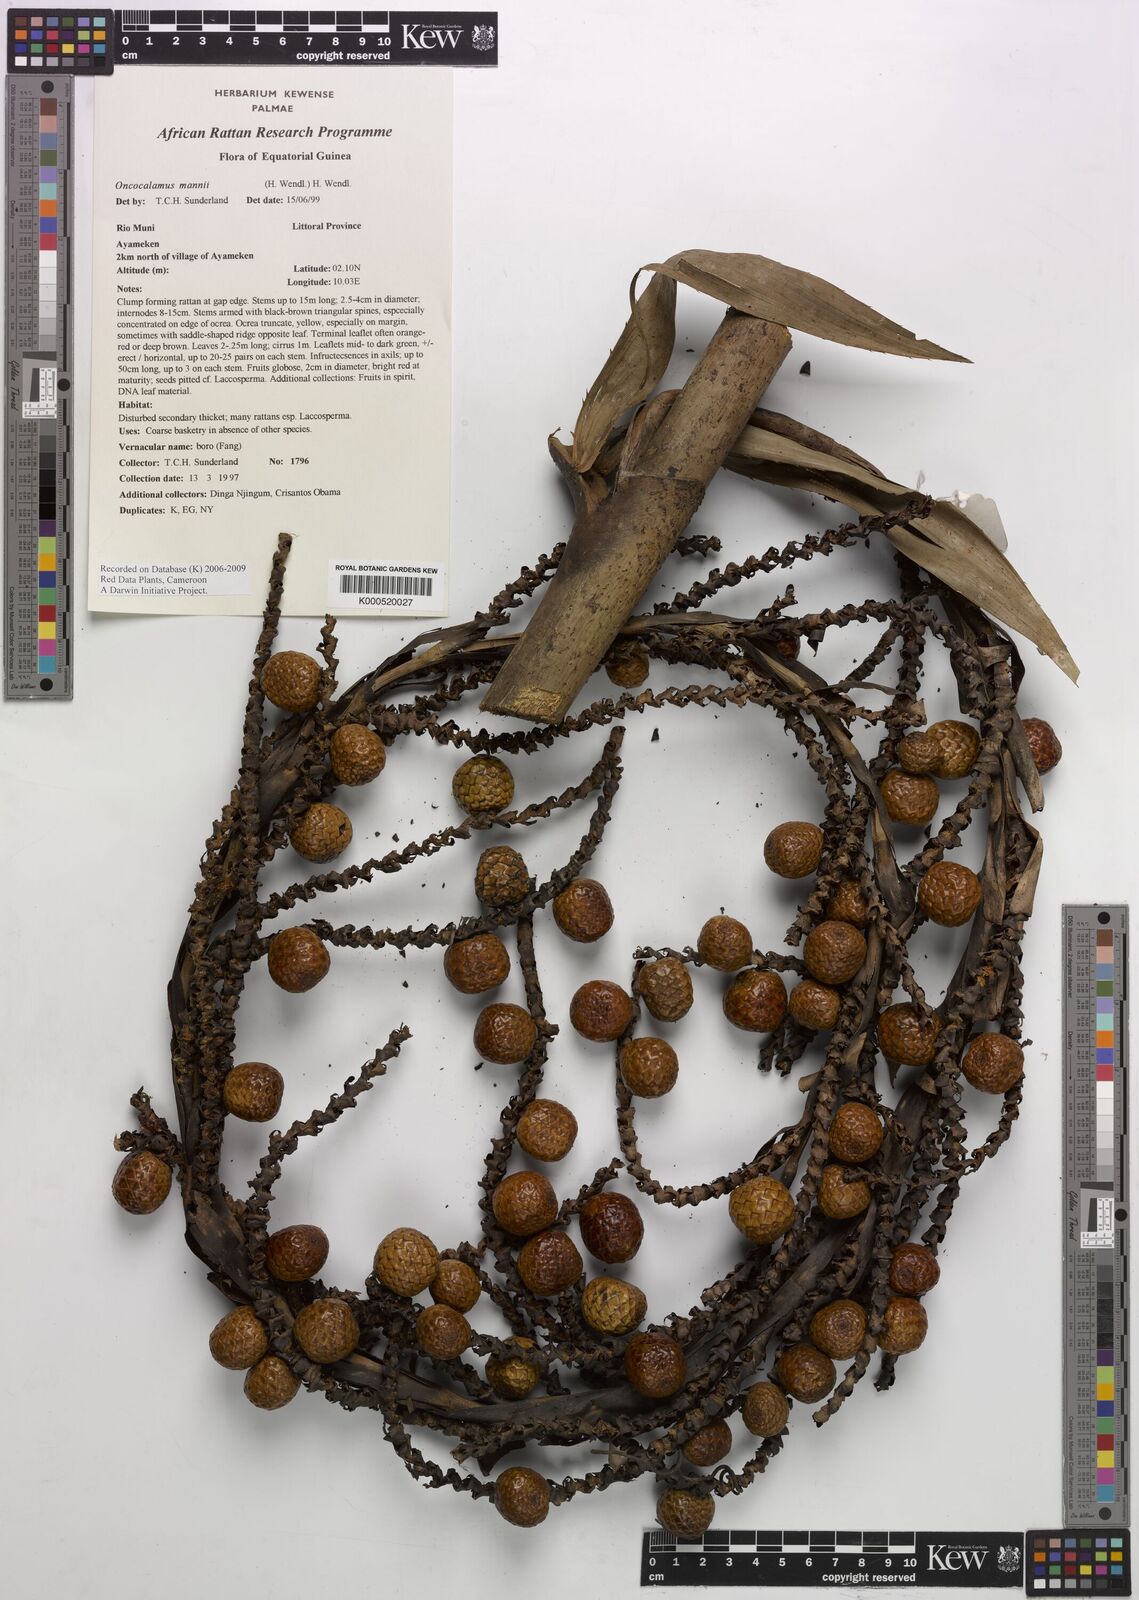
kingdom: Plantae
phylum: Tracheophyta
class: Liliopsida
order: Arecales
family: Arecaceae
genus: Oncocalamus
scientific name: Oncocalamus mannii
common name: Rattan
